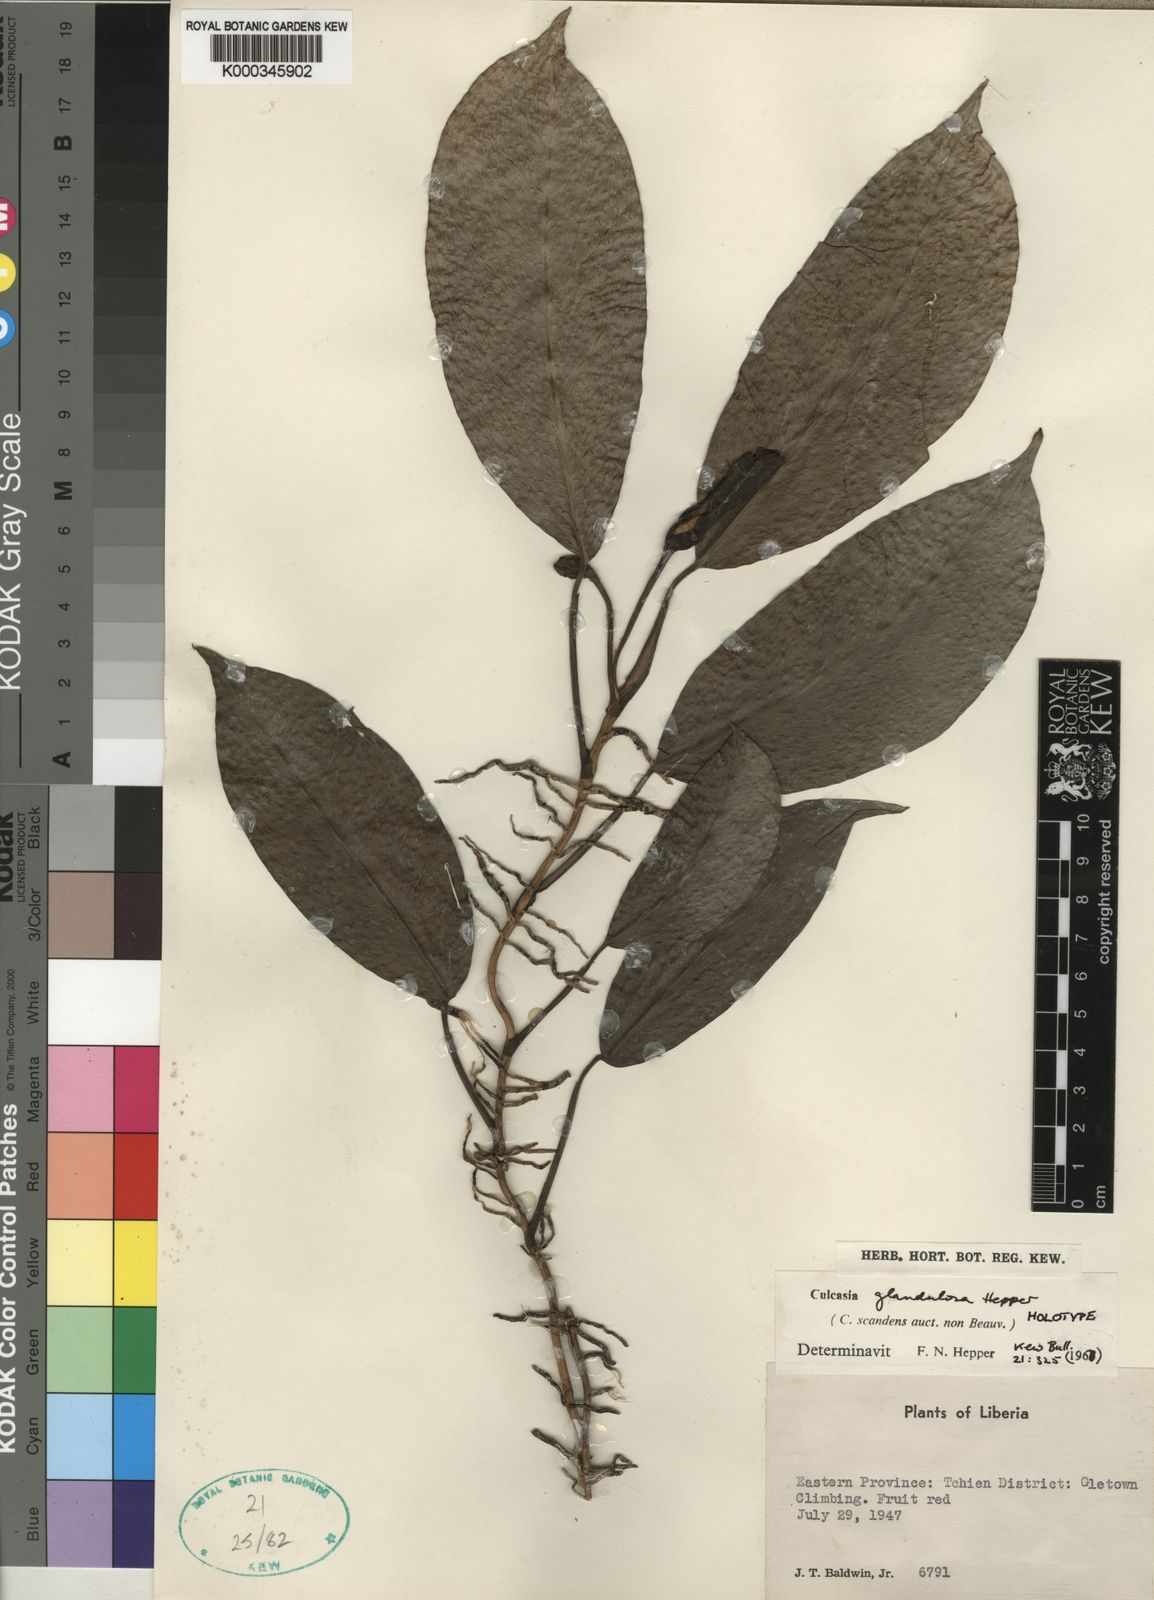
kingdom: Plantae
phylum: Tracheophyta
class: Liliopsida
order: Alismatales
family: Araceae
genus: Culcasia
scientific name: Culcasia glandulosa
